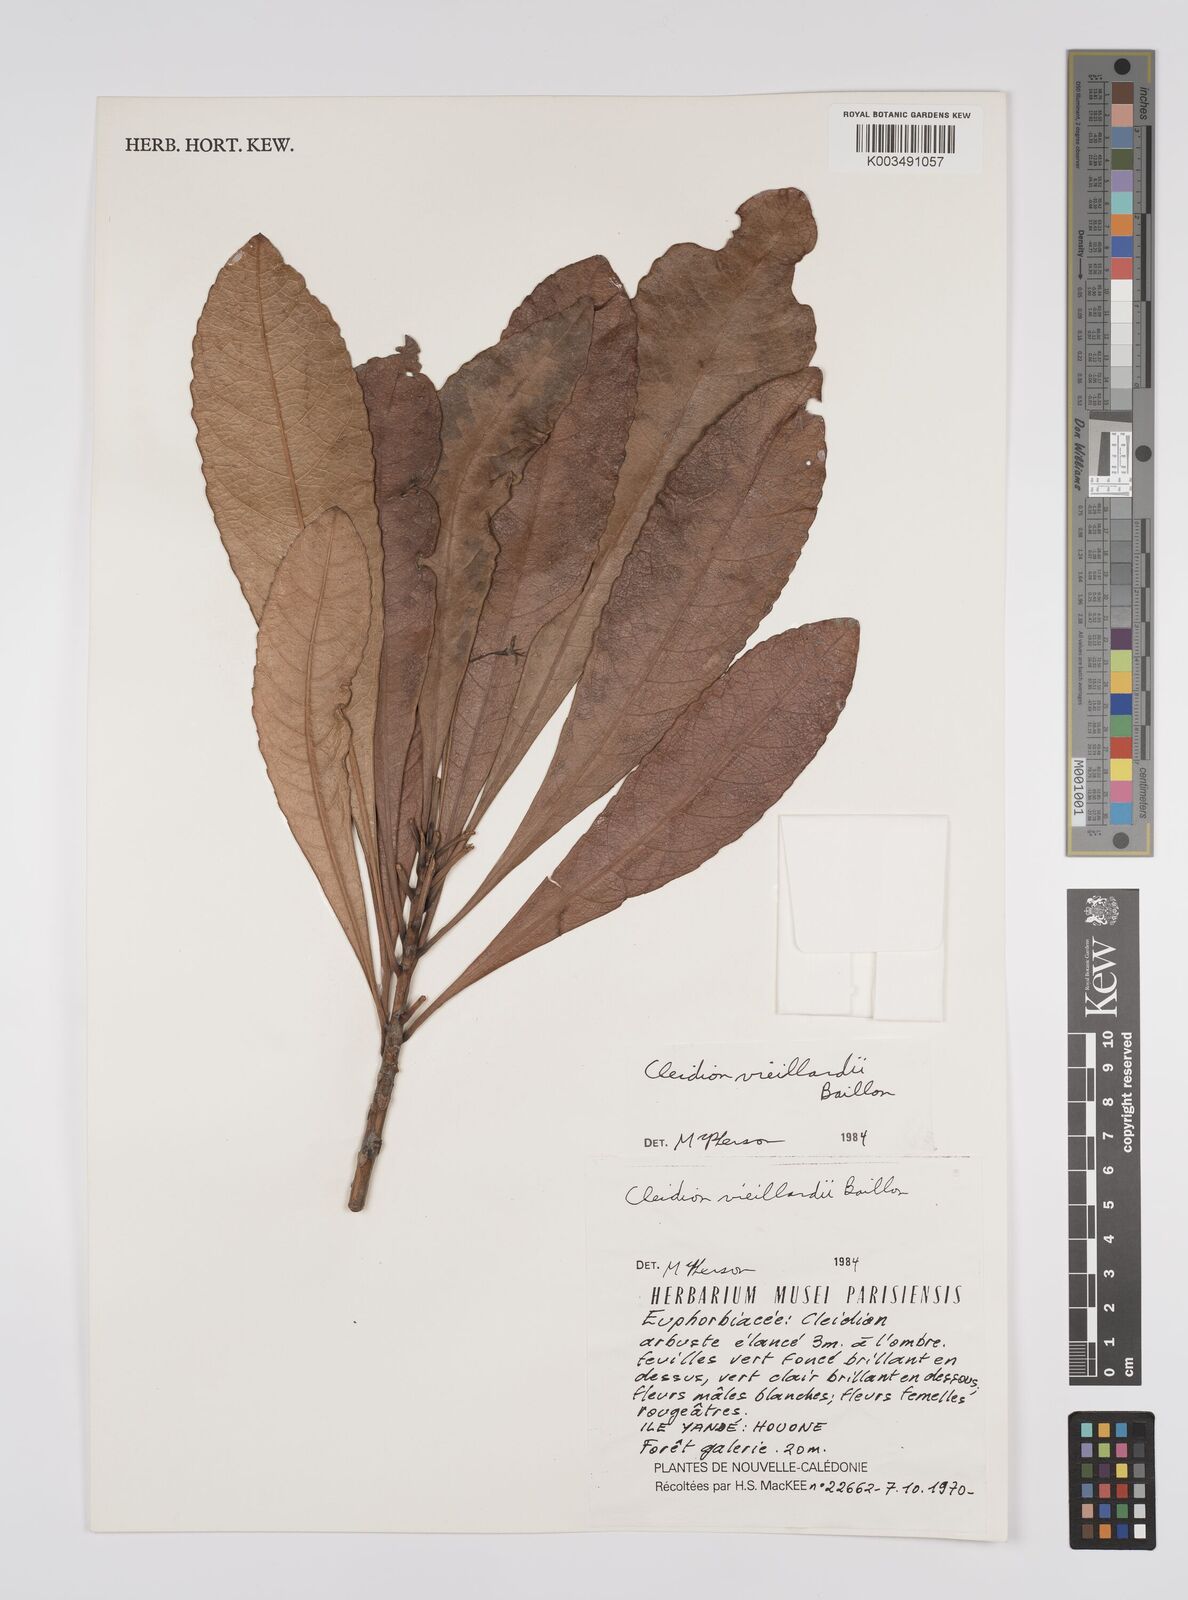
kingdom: Plantae
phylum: Tracheophyta
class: Magnoliopsida
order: Malpighiales
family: Euphorbiaceae
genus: Cleidion
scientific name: Cleidion vieillardii
